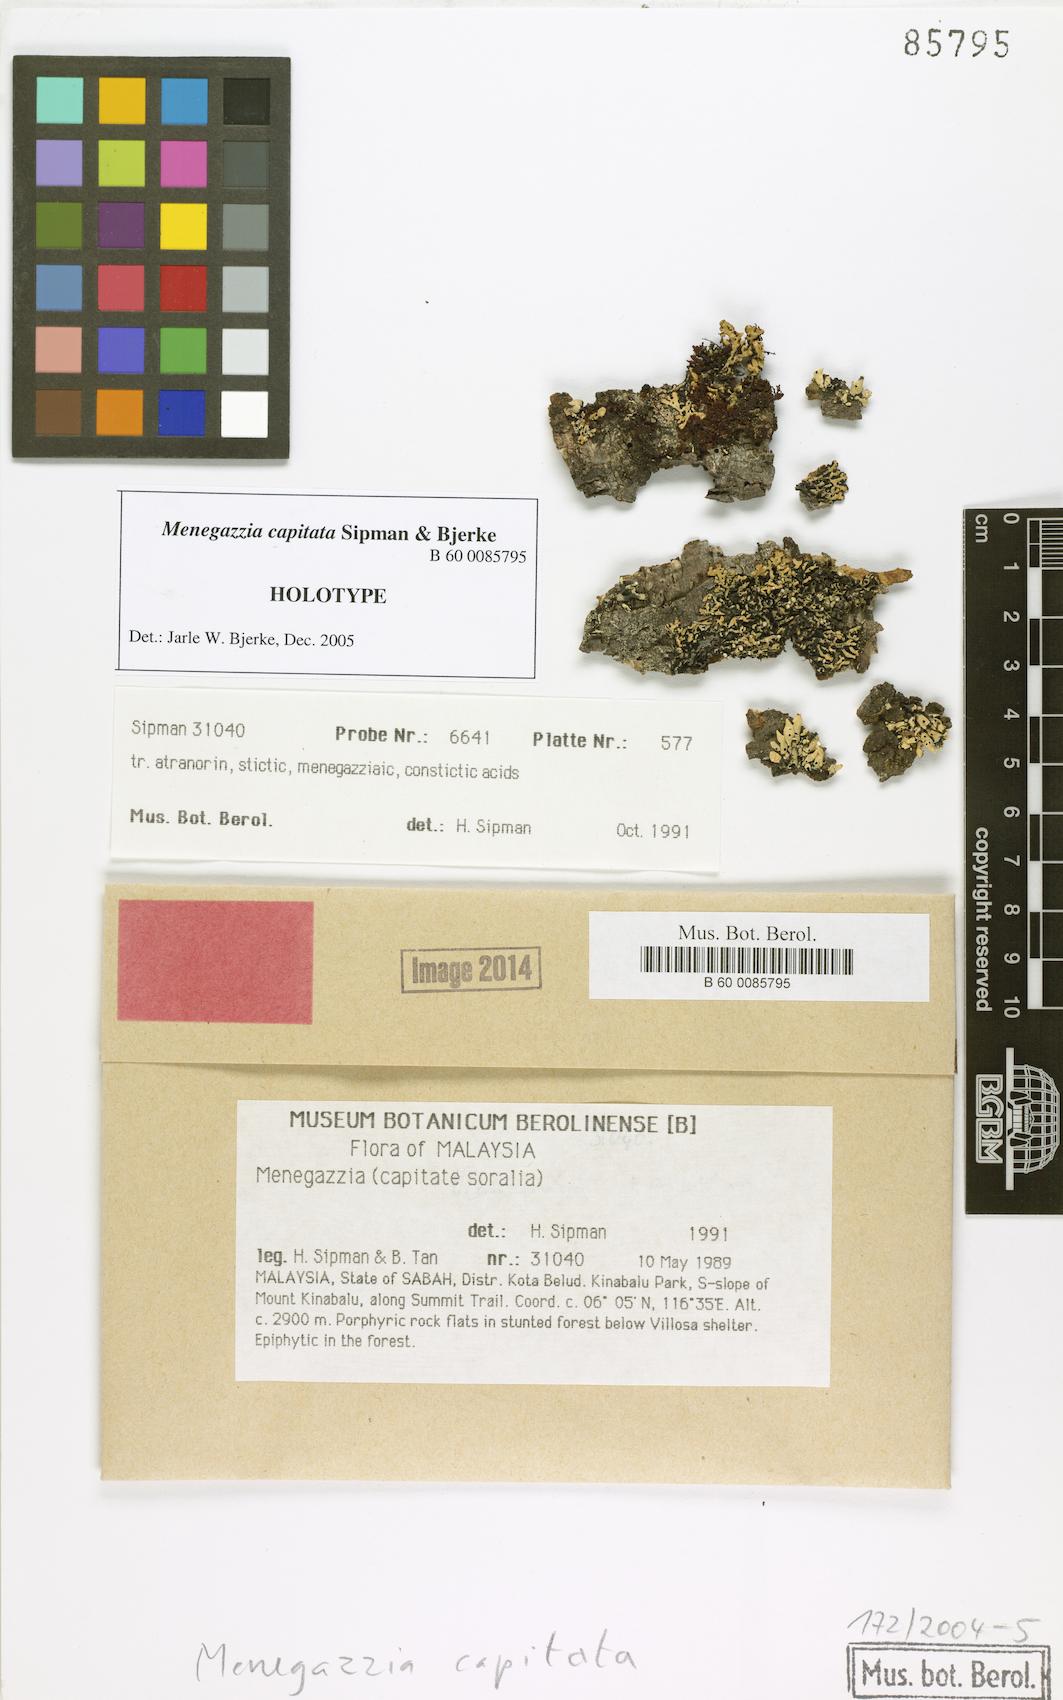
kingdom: Fungi
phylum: Ascomycota
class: Lecanoromycetes
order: Lecanorales
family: Parmeliaceae
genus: Menegazzia
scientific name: Menegazzia capitata
